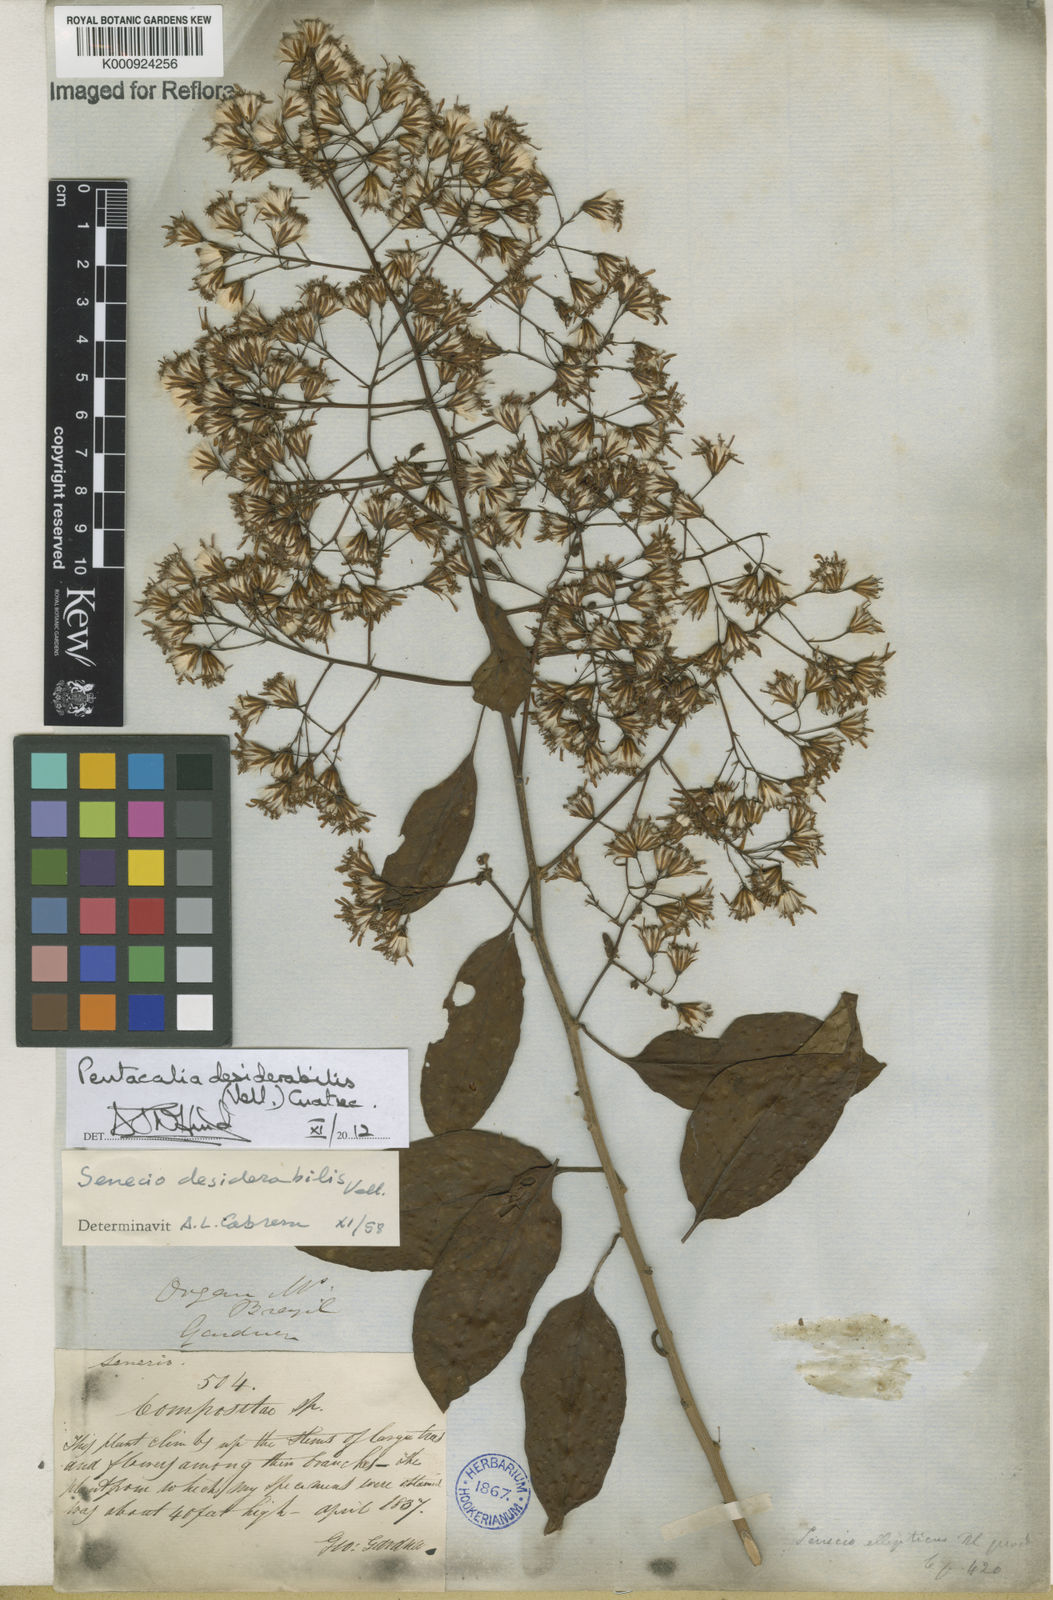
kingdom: Plantae
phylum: Tracheophyta
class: Magnoliopsida
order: Asterales
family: Asteraceae
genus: Pentacalia
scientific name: Pentacalia desiderabilis
